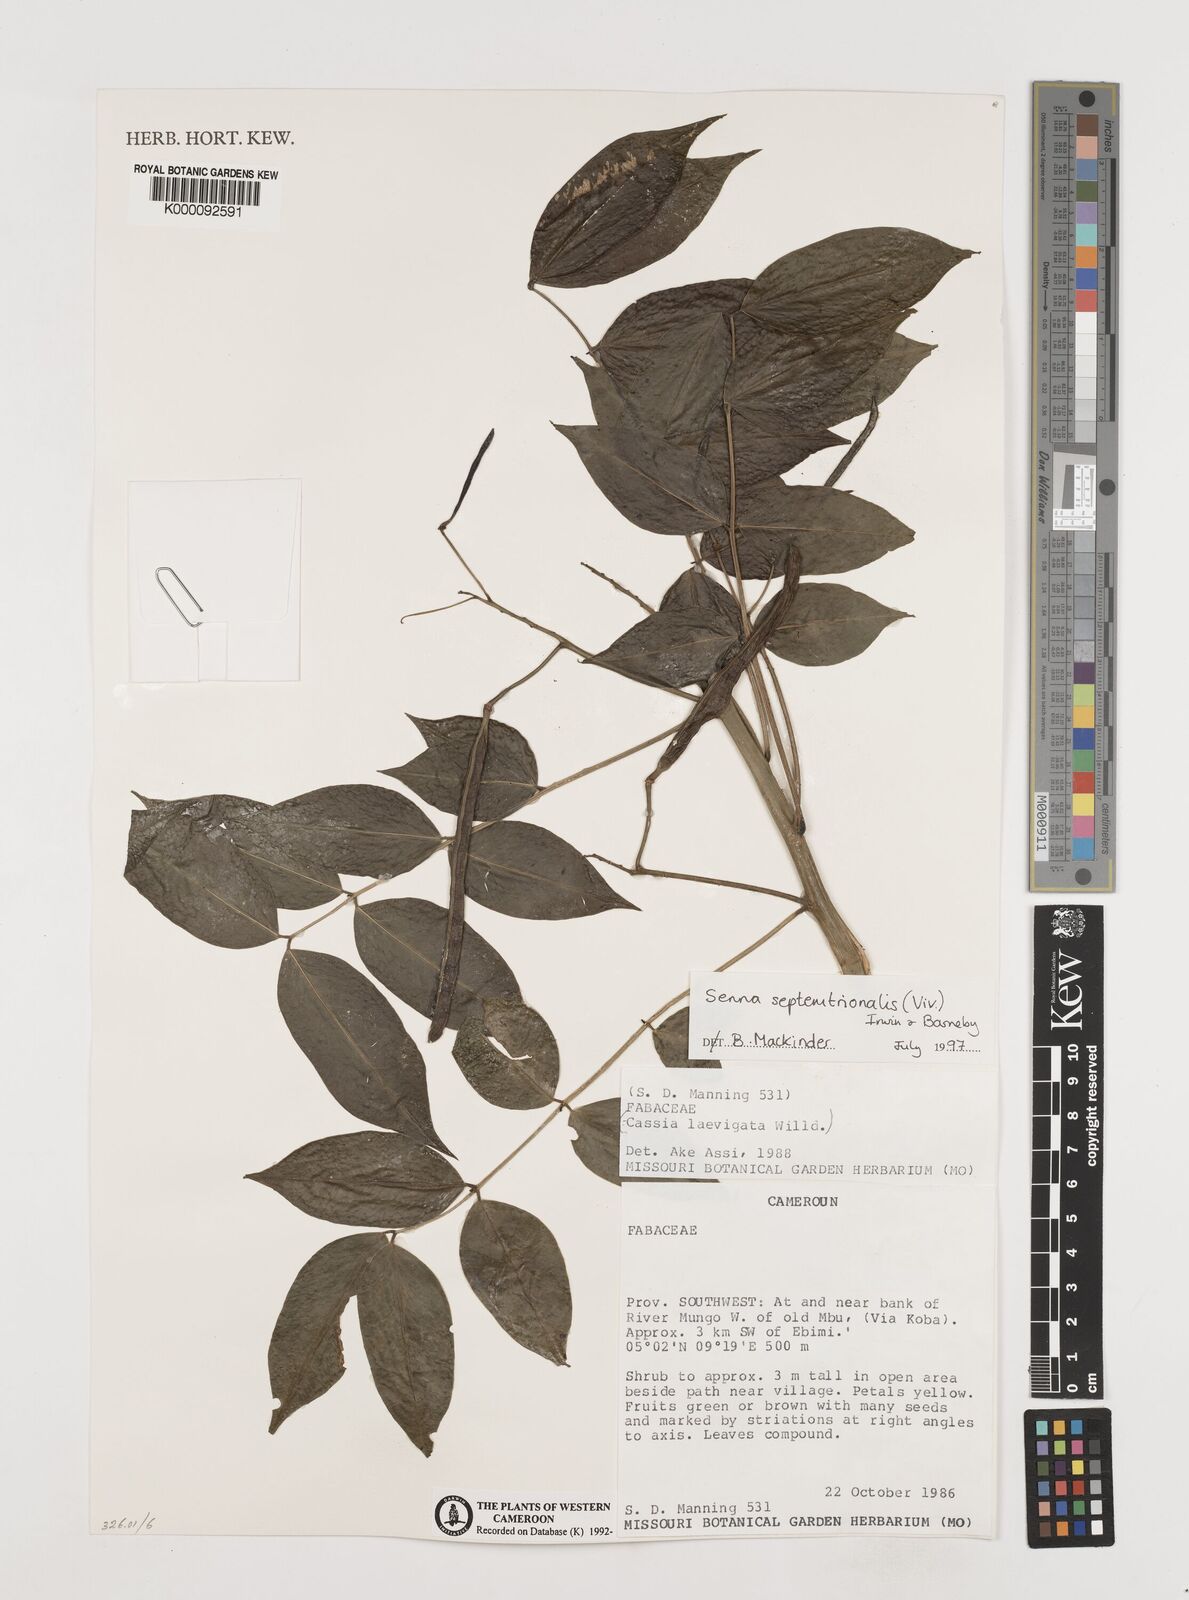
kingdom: Plantae
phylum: Tracheophyta
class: Magnoliopsida
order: Fabales
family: Fabaceae
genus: Senna
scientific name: Senna septemtrionalis
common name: Arsenic bush
